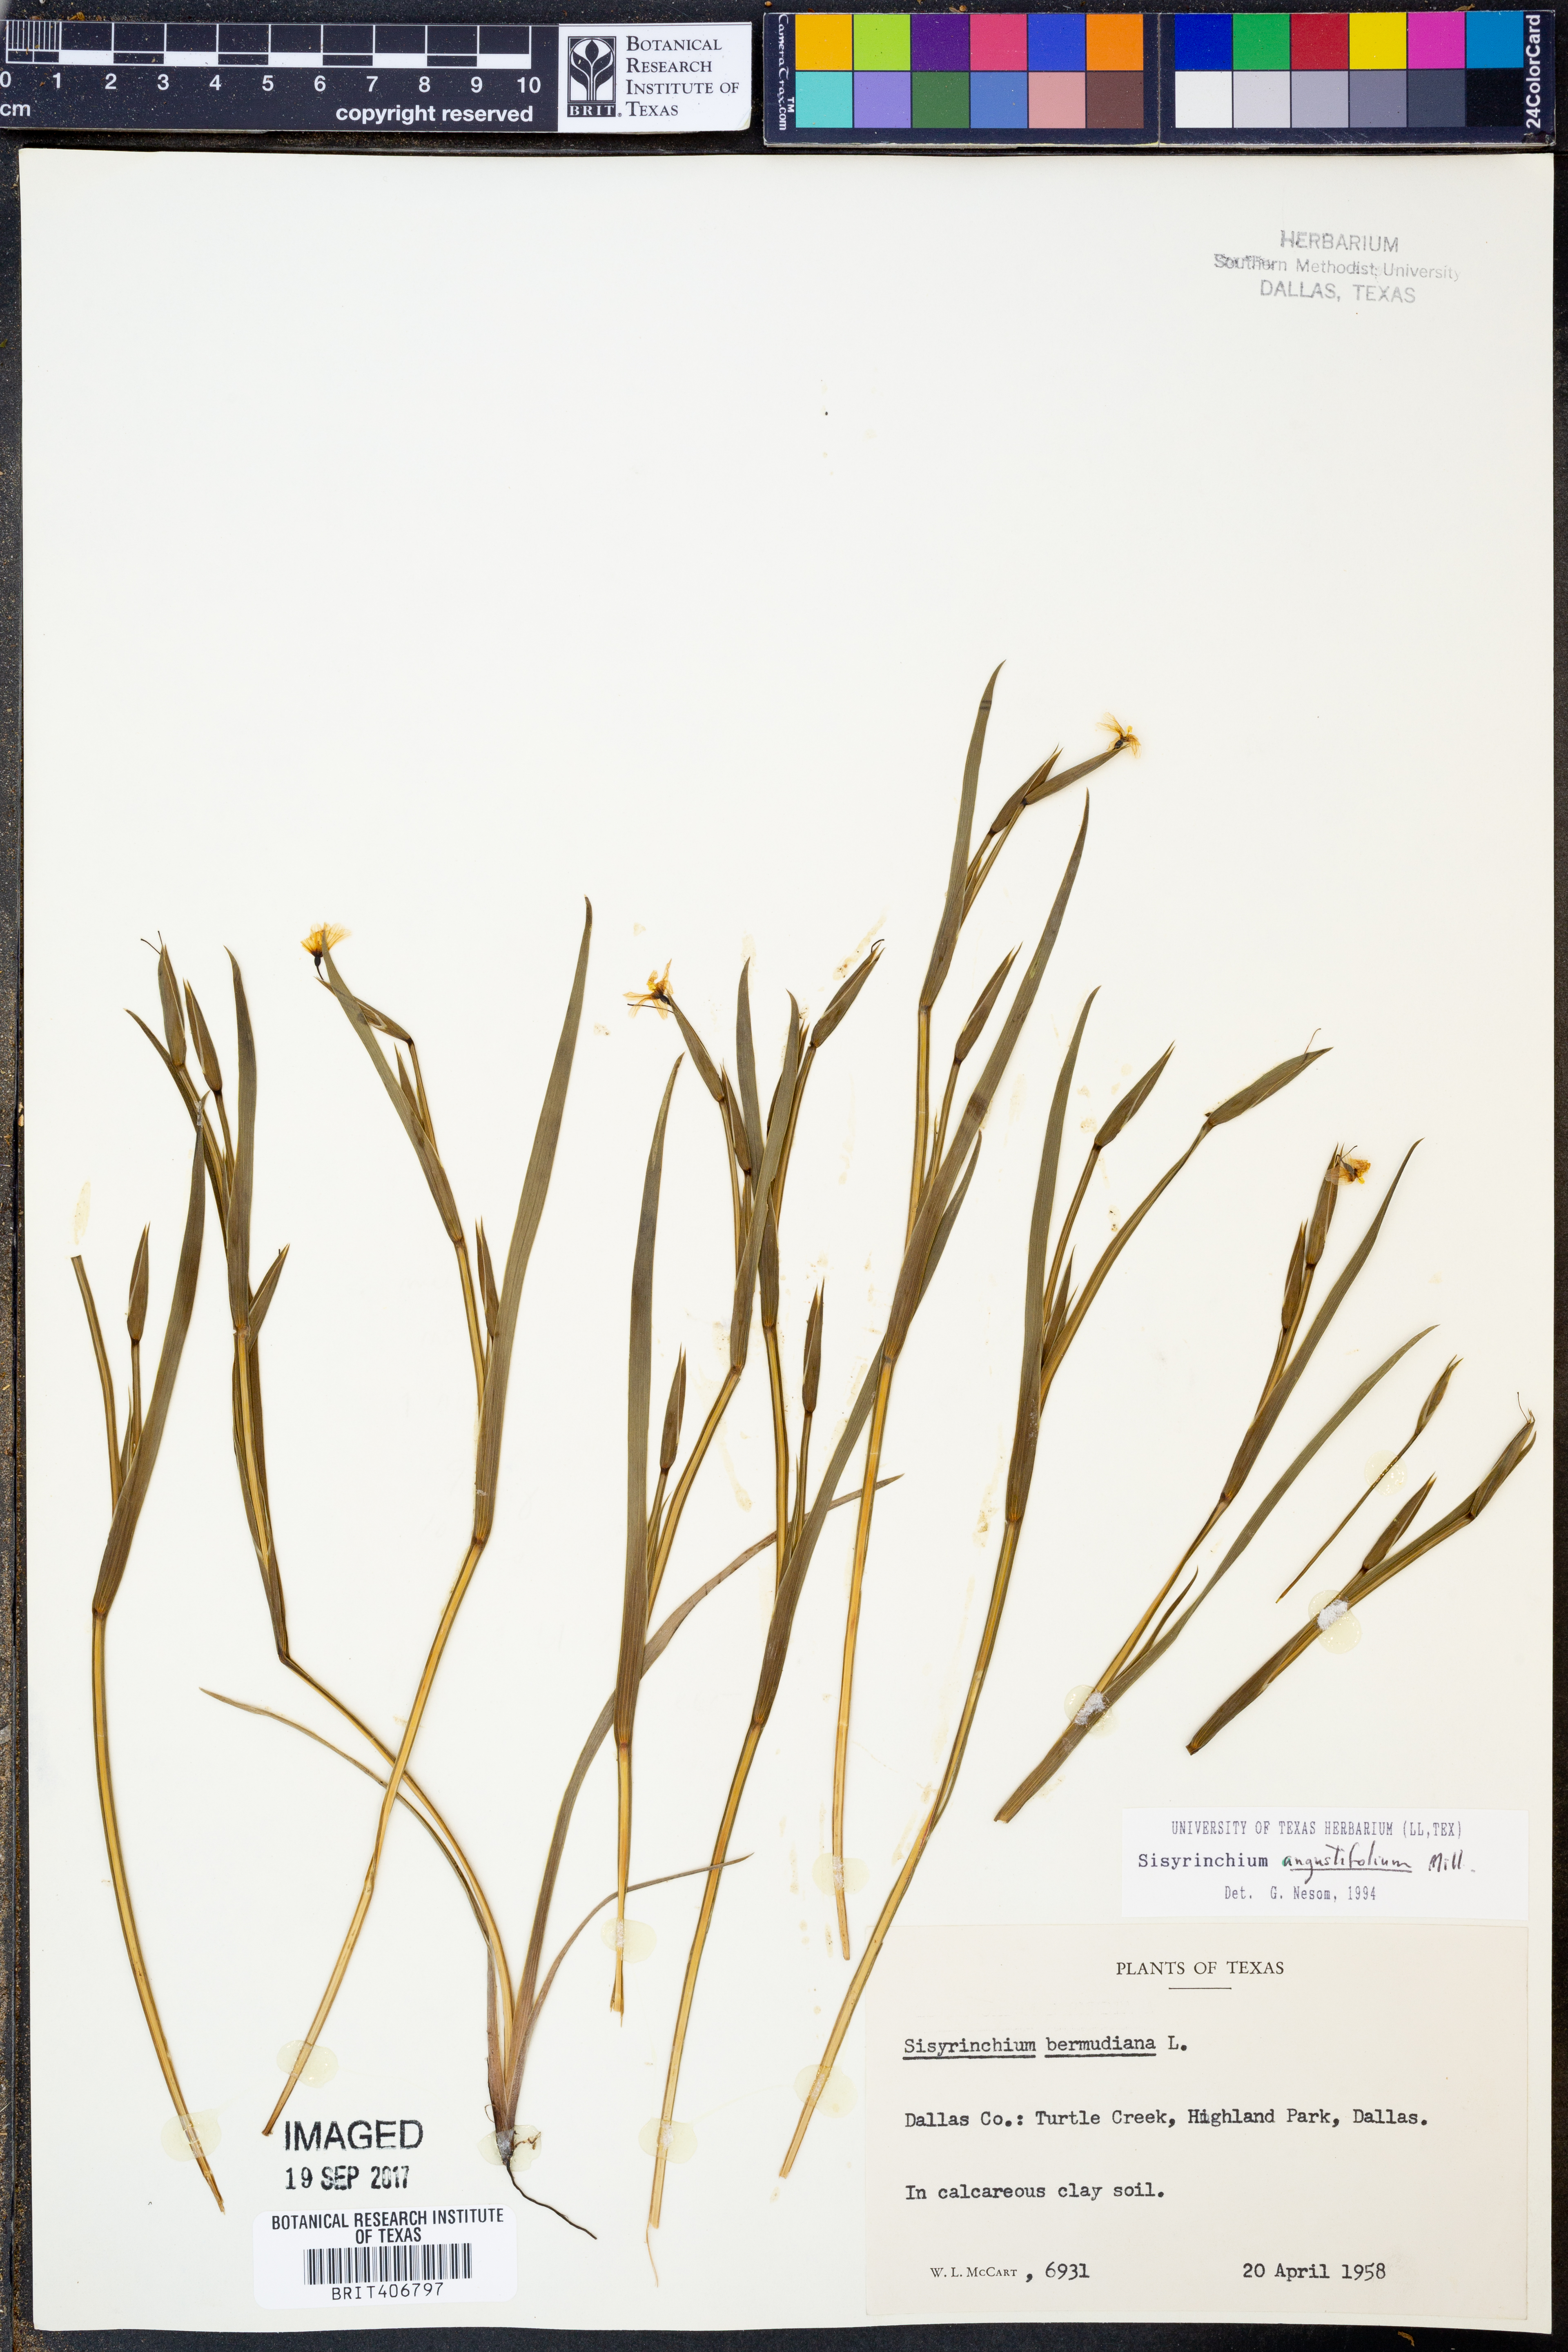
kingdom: Plantae
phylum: Tracheophyta
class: Liliopsida
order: Asparagales
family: Iridaceae
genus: Sisyrinchium
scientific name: Sisyrinchium angustifolium
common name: Narrow-leaf blue-eyed-grass
